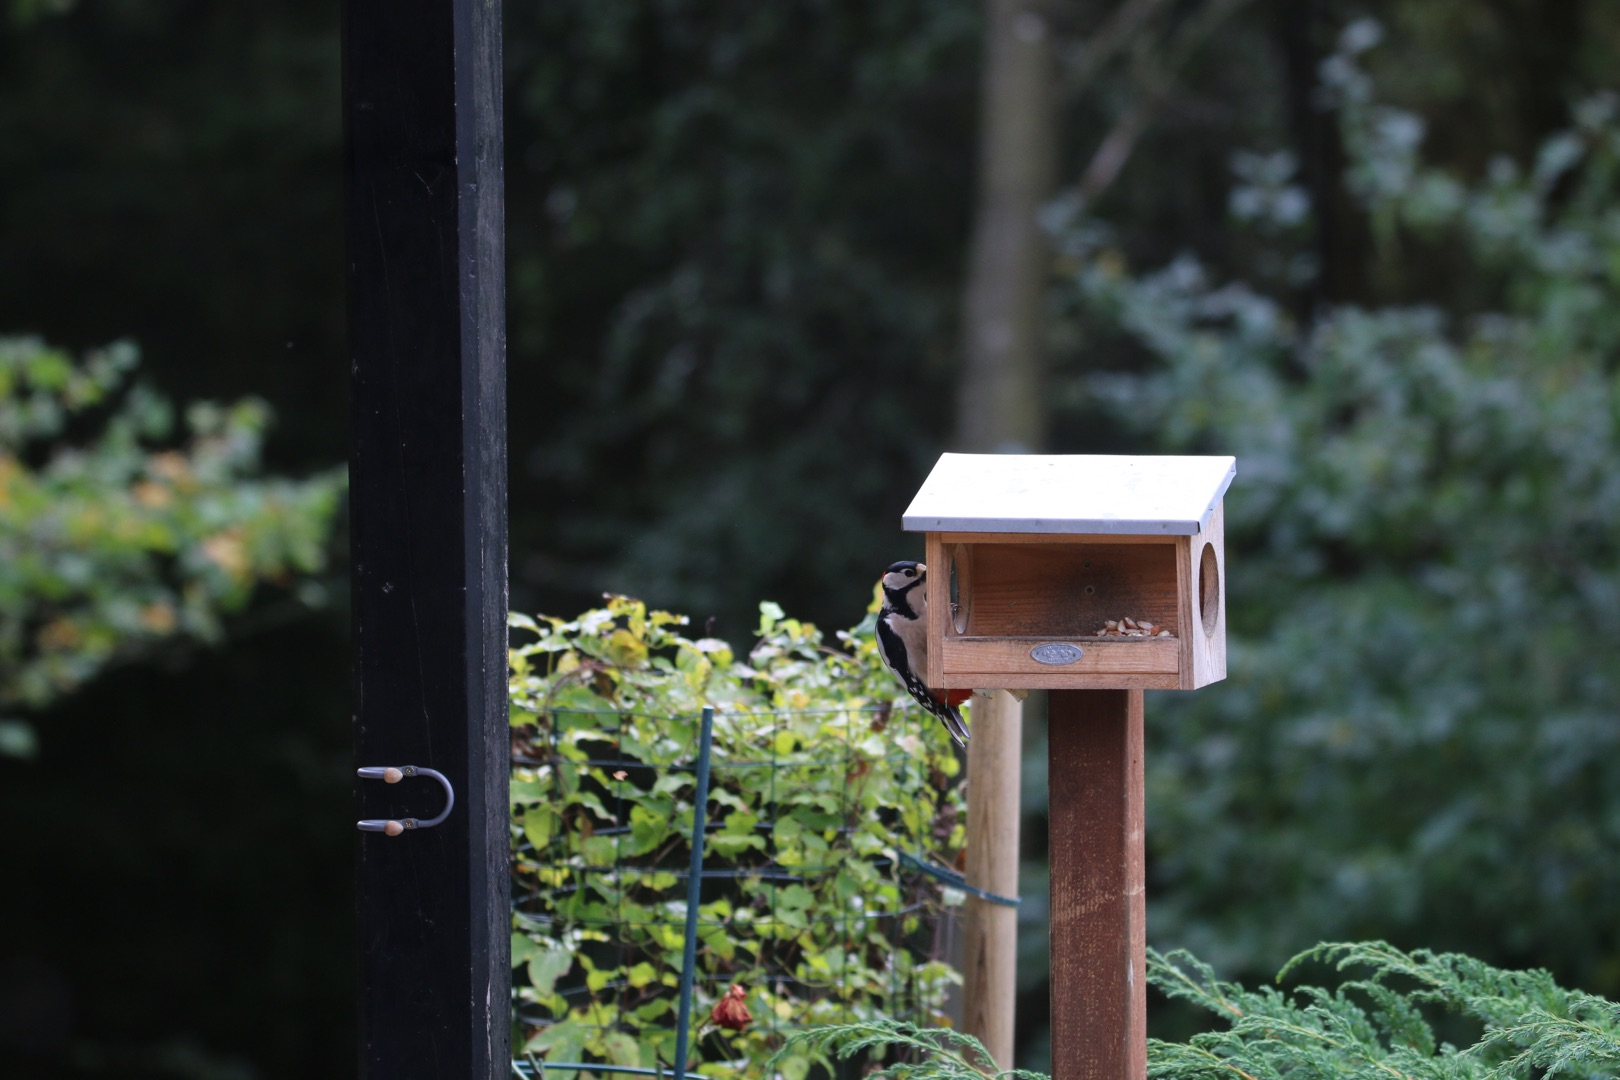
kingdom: Animalia
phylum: Chordata
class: Aves
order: Piciformes
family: Picidae
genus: Dendrocopos
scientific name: Dendrocopos major
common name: Stor flagspætte
